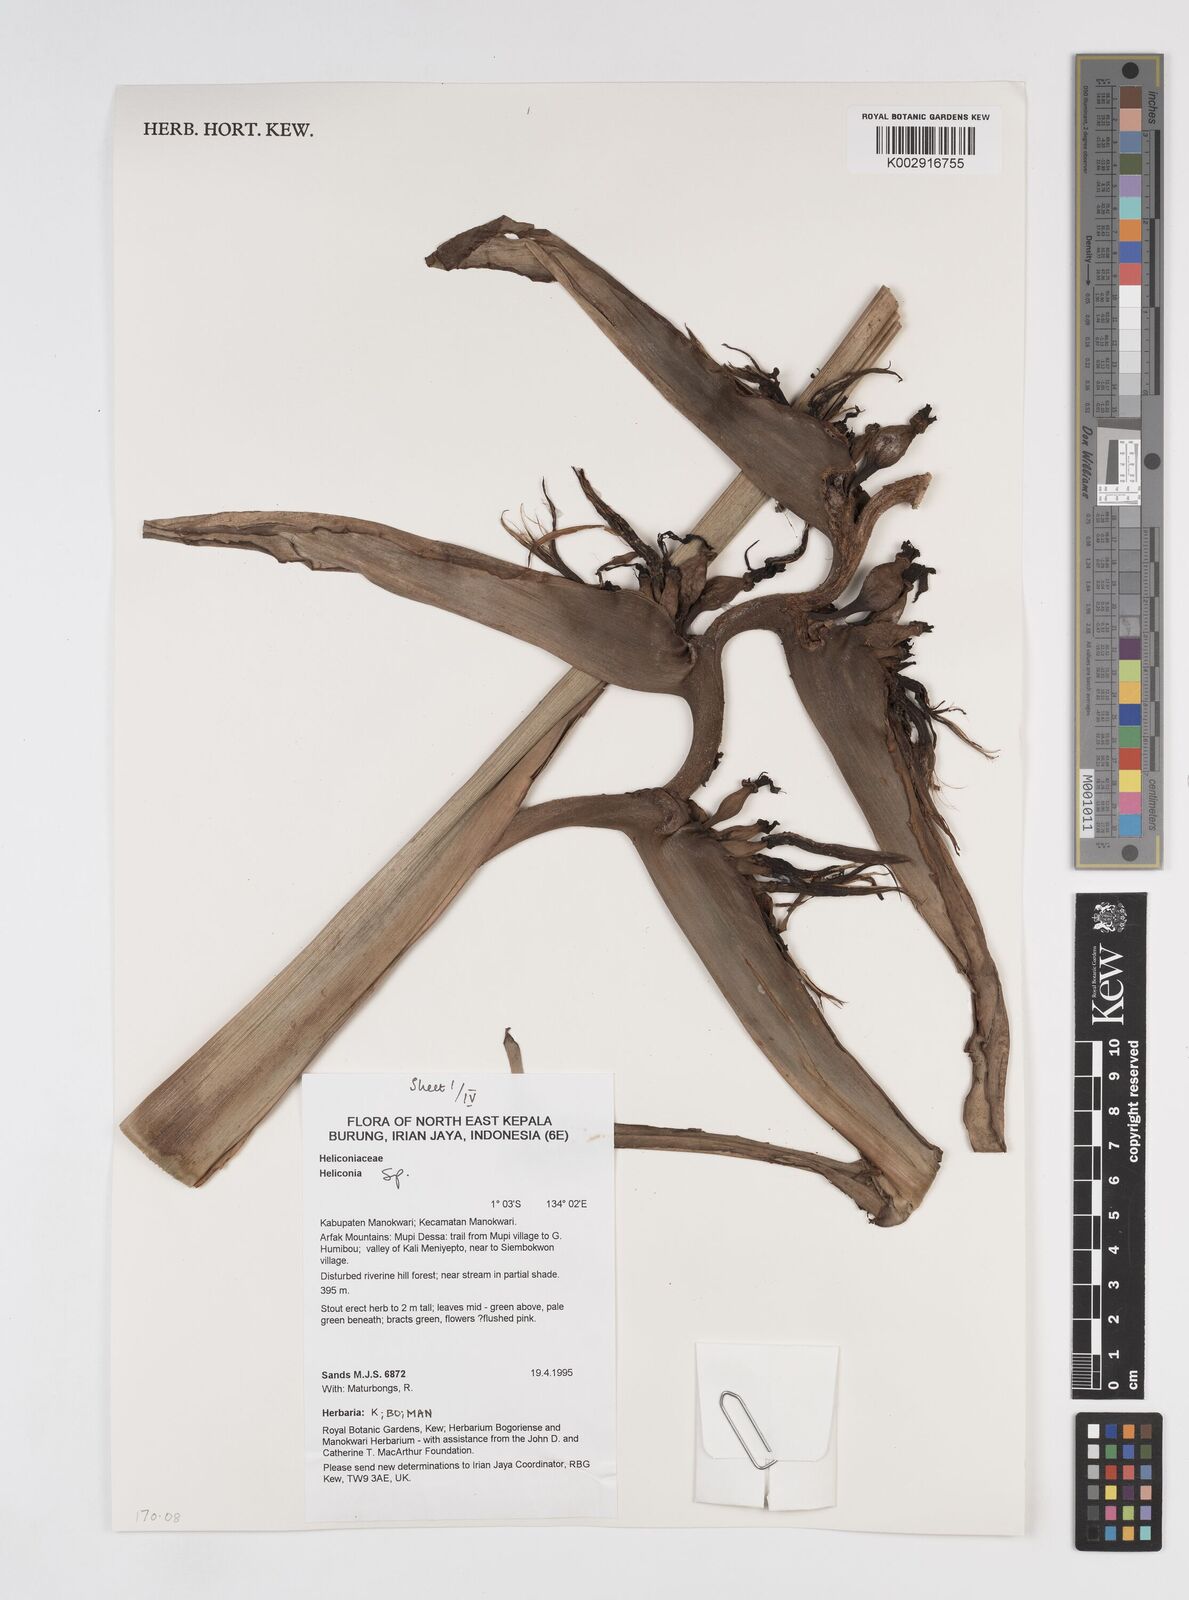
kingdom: Plantae
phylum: Tracheophyta
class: Liliopsida
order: Zingiberales
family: Heliconiaceae
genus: Heliconia
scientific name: Heliconia
